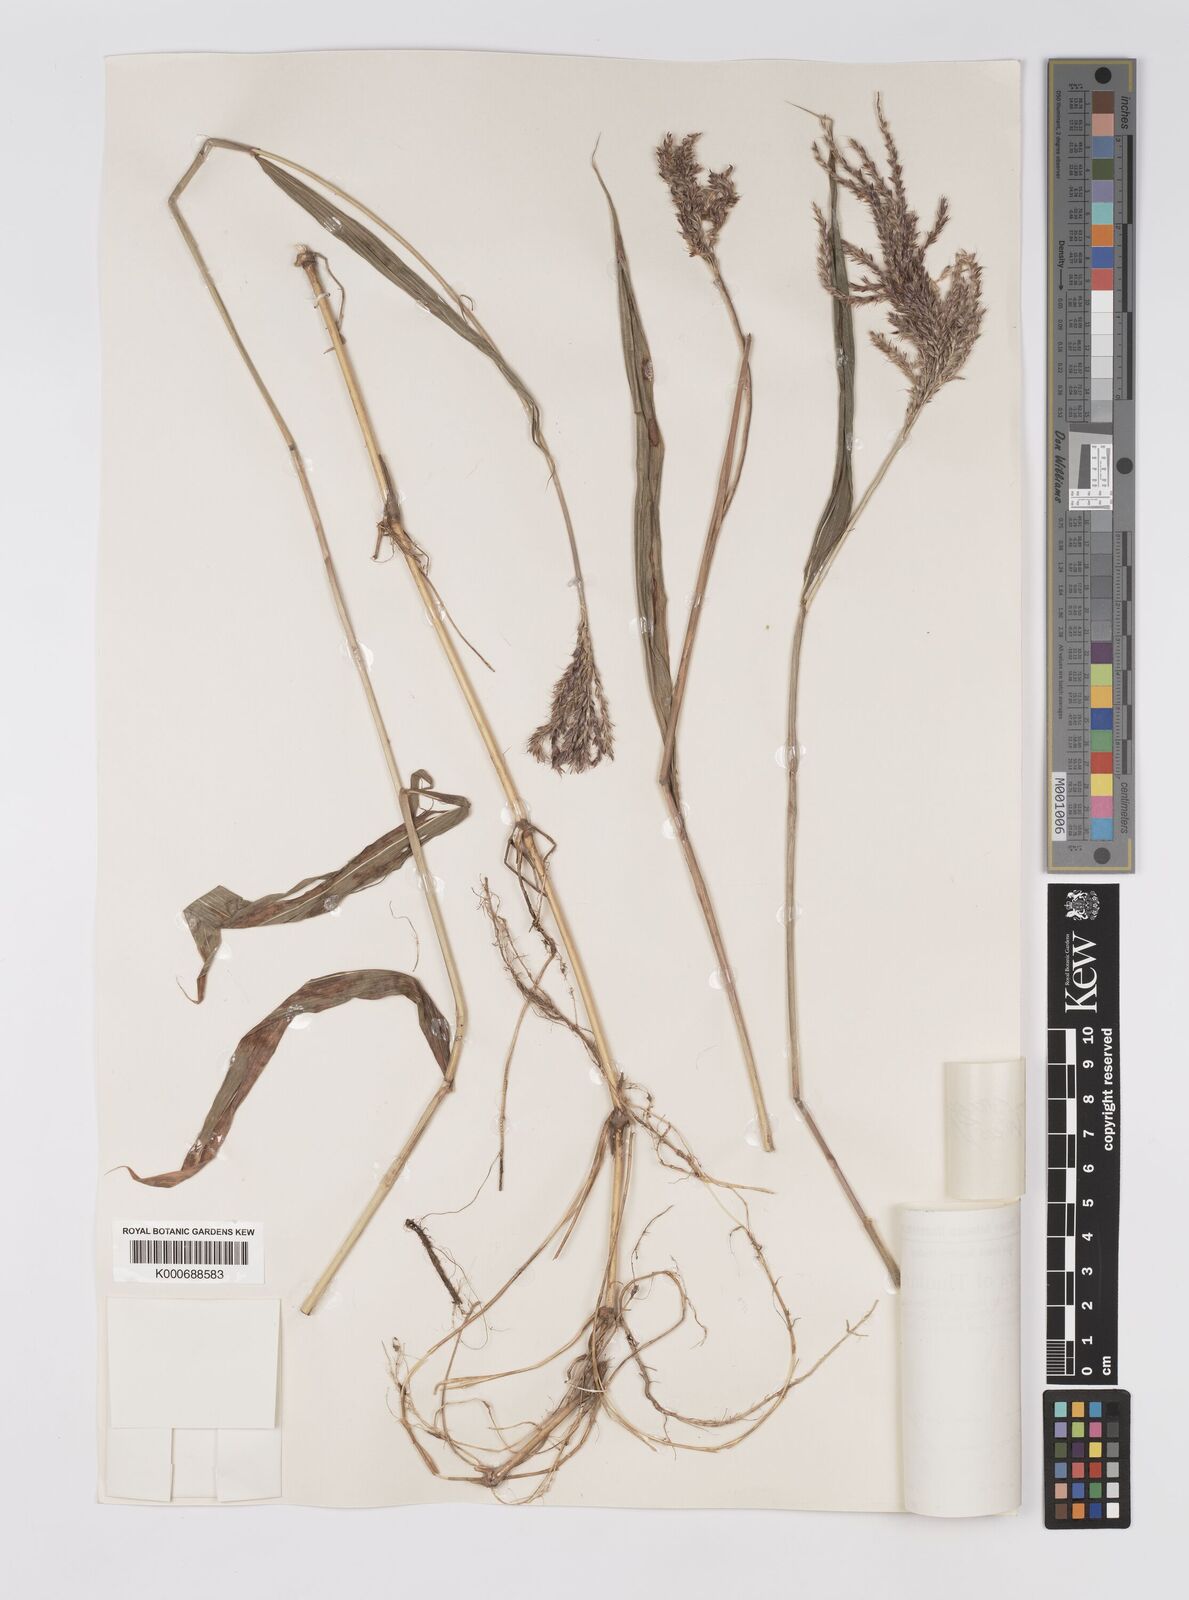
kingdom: Plantae
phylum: Tracheophyta
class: Liliopsida
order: Poales
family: Poaceae
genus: Microstegium
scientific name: Microstegium fasciculatum
